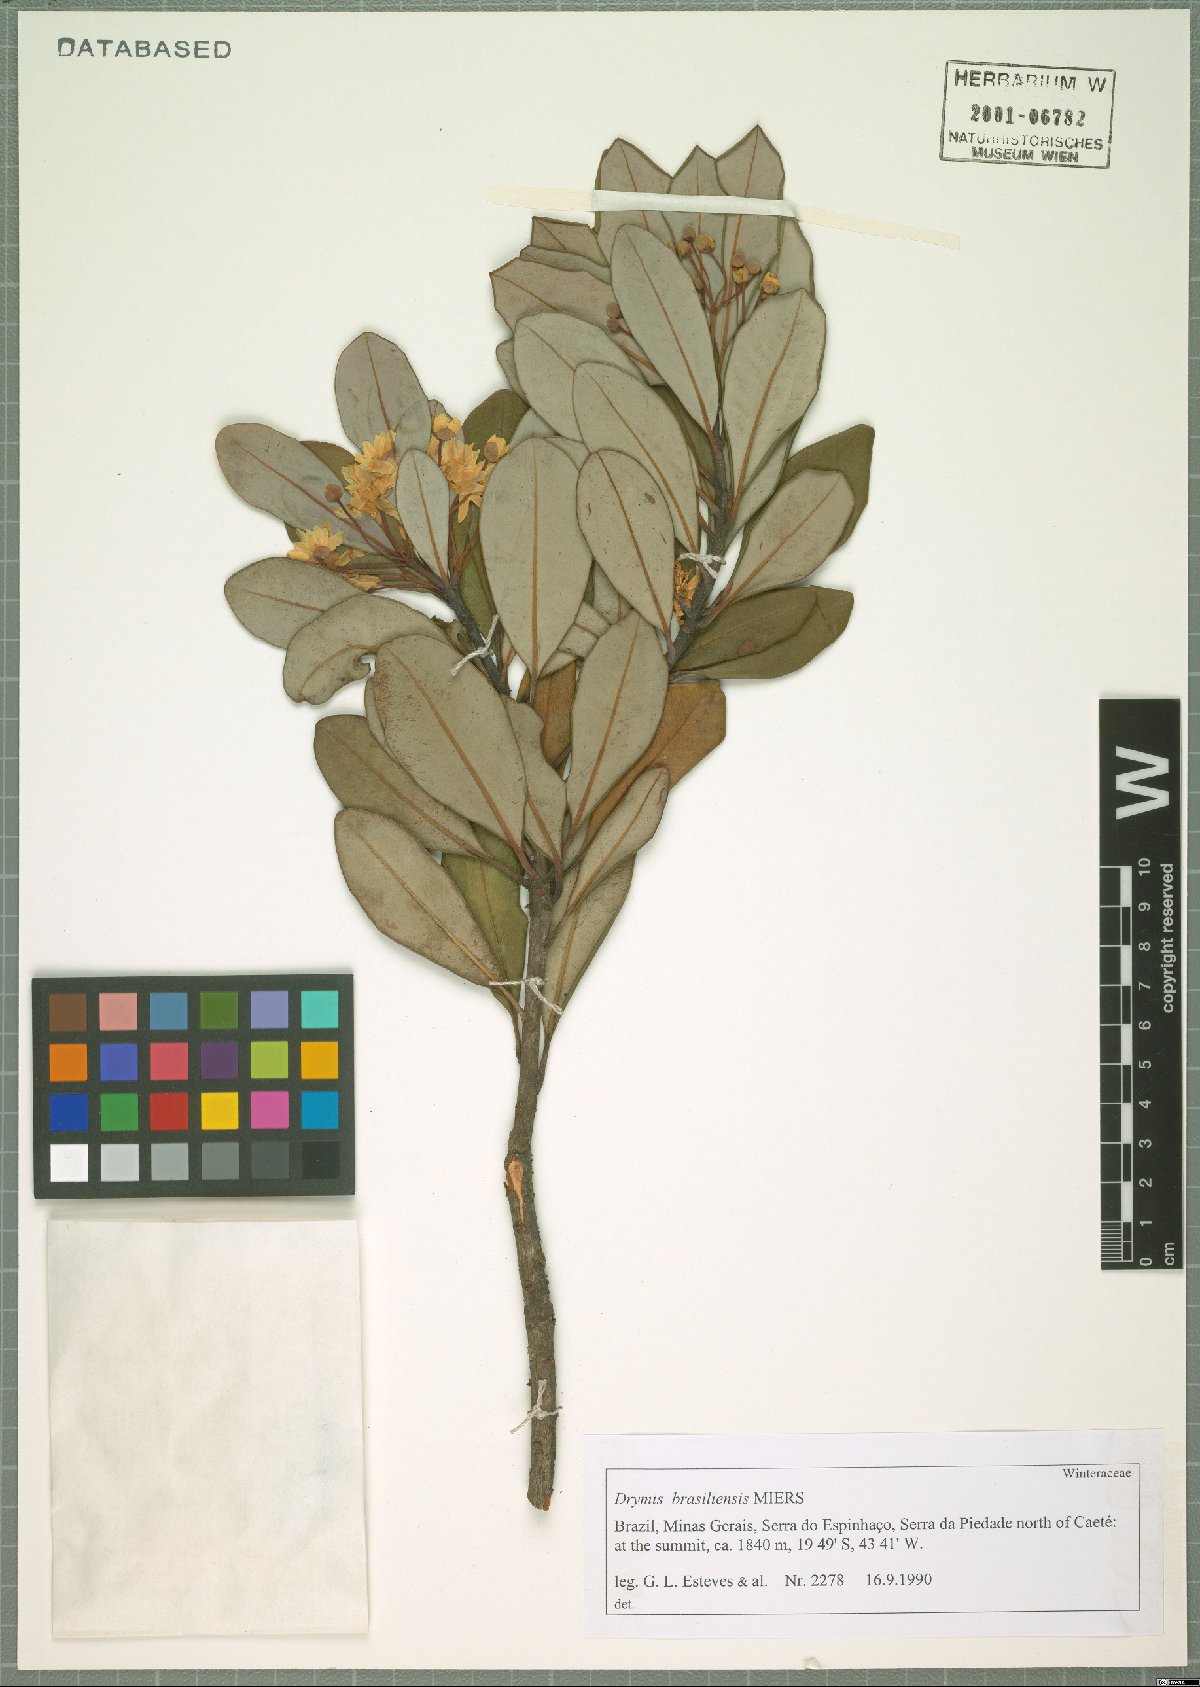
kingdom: Plantae
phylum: Tracheophyta
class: Magnoliopsida
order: Canellales
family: Winteraceae
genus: Drimys
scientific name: Drimys brasiliensis
